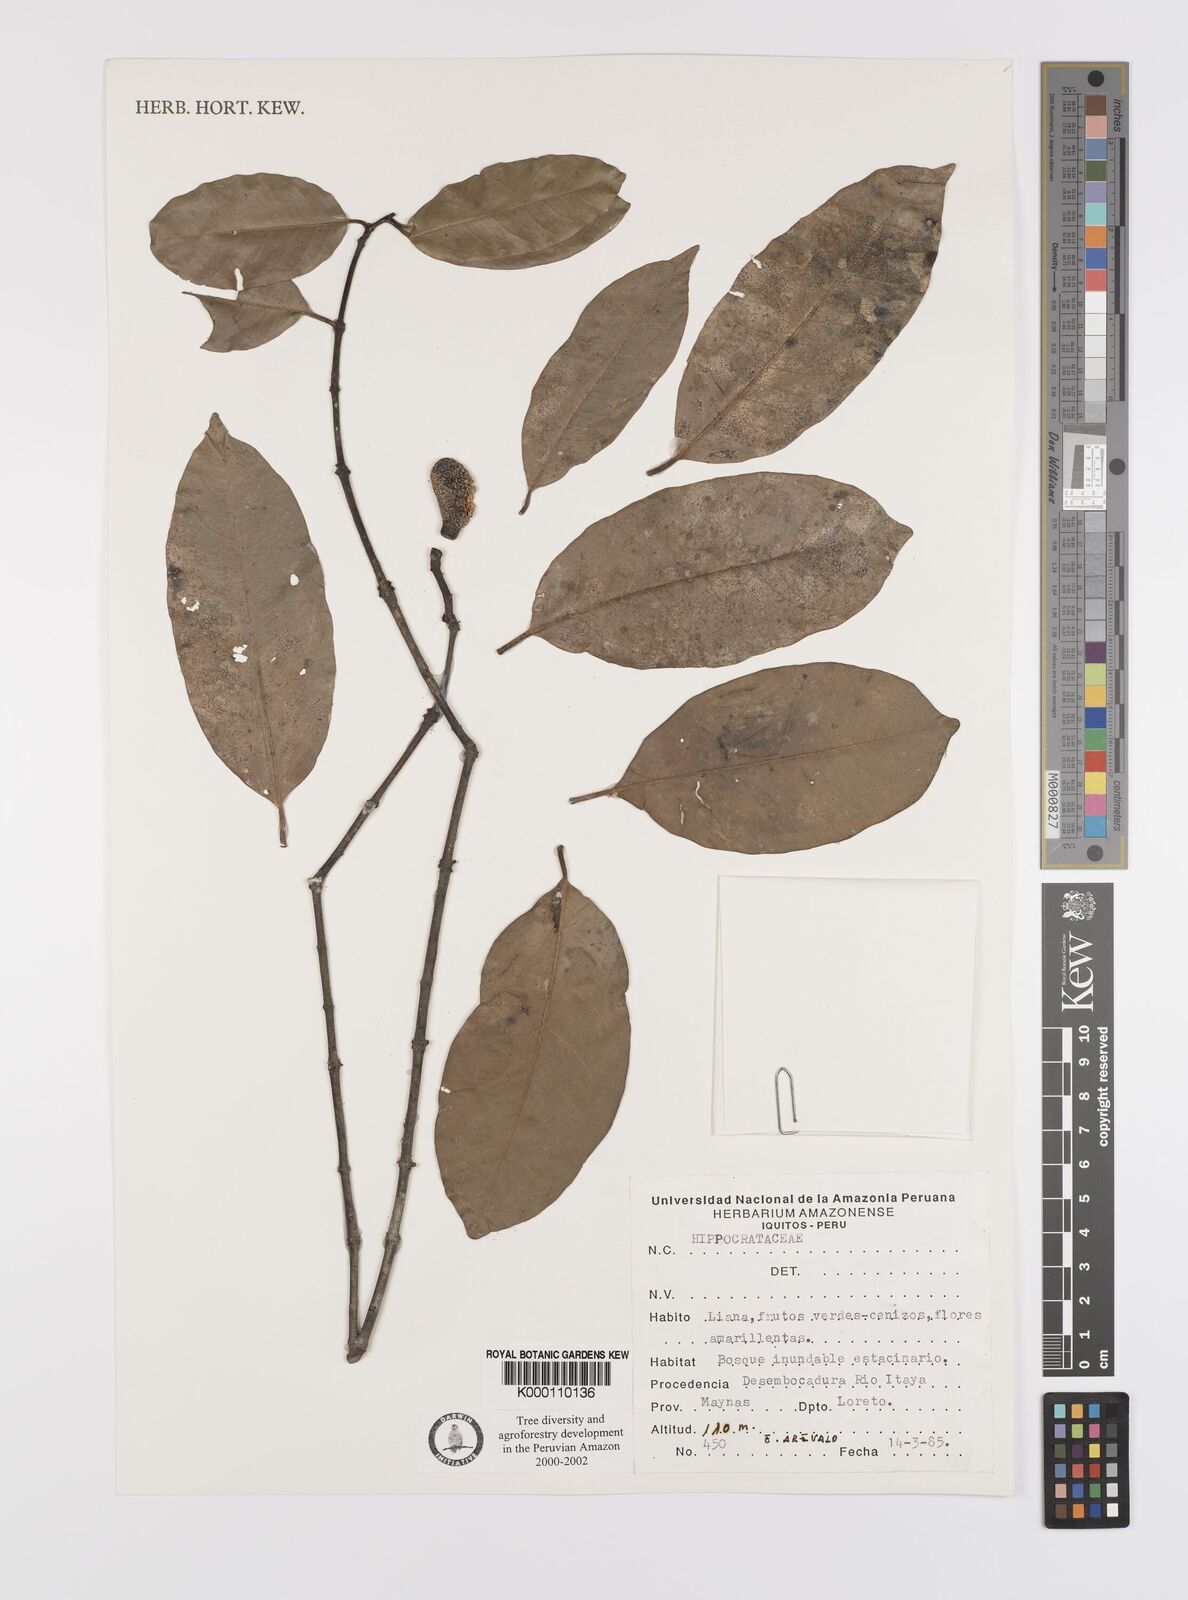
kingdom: Plantae
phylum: Tracheophyta
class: Magnoliopsida
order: Celastrales
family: Celastraceae
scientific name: Celastraceae
